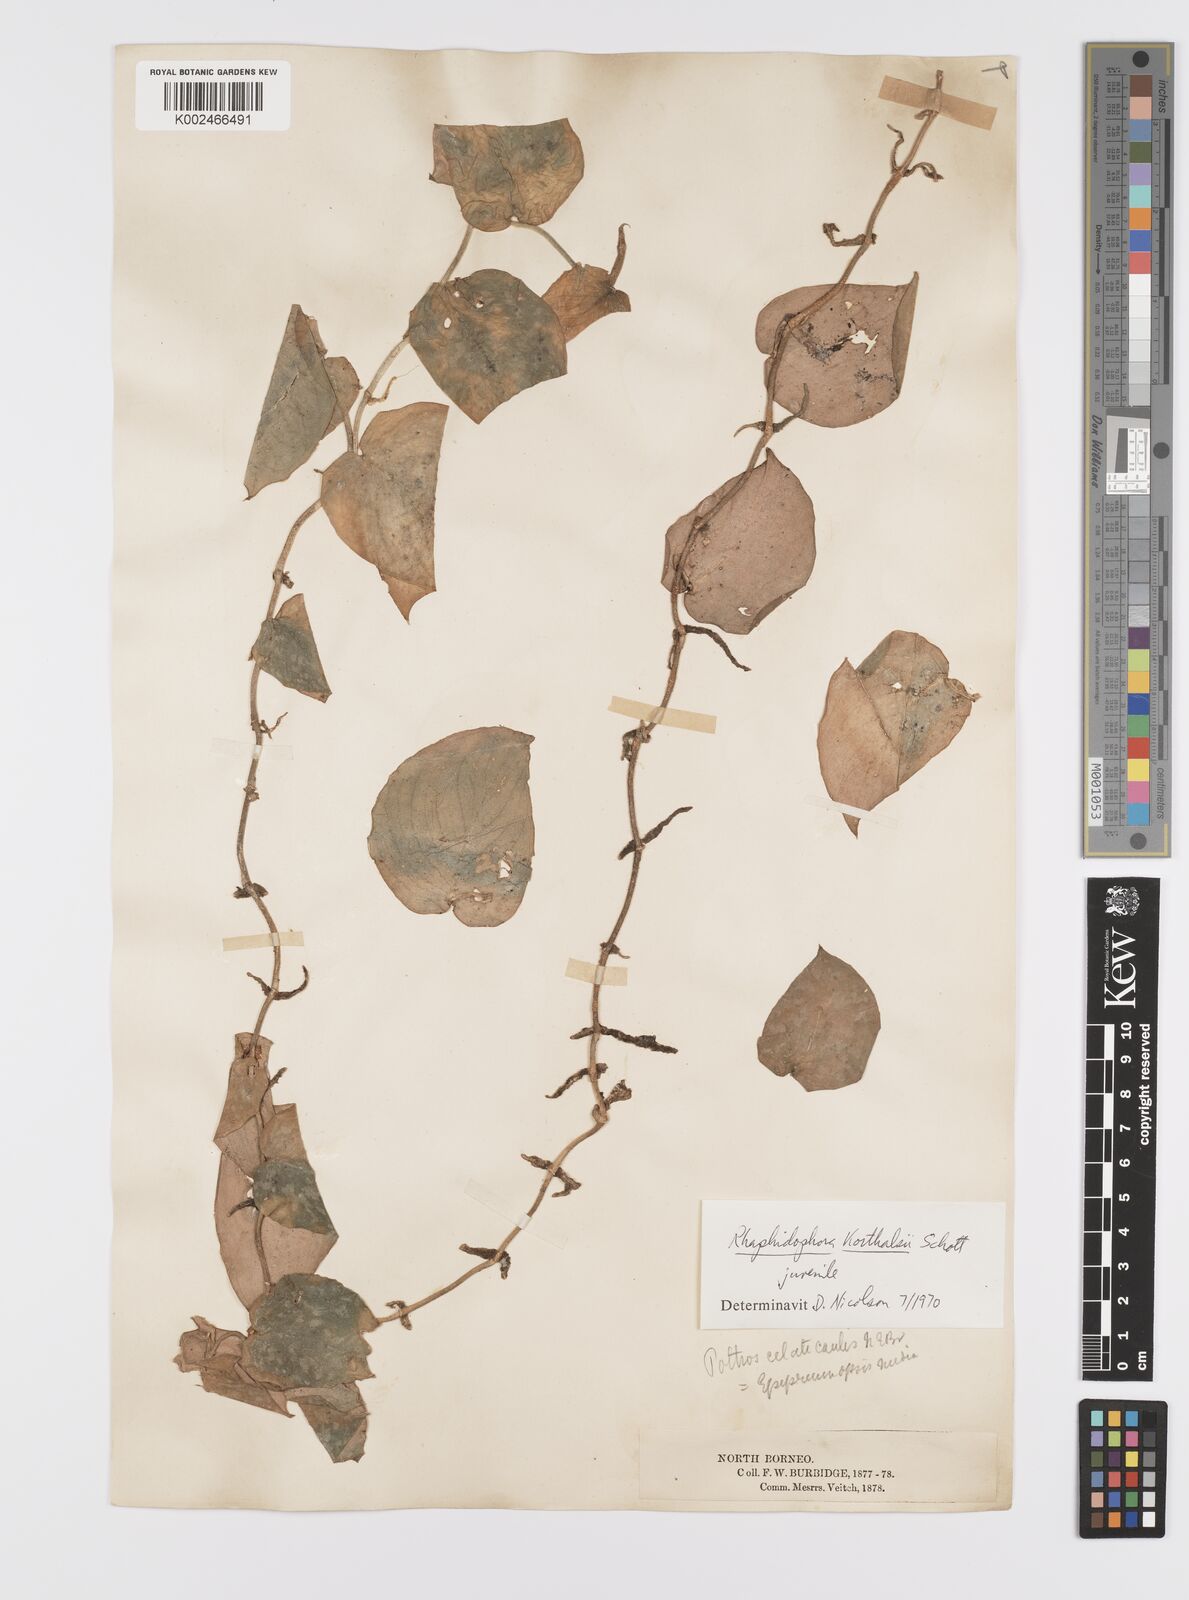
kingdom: Plantae
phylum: Tracheophyta
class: Liliopsida
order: Alismatales
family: Araceae
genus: Scindapsus
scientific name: Scindapsus pictus
